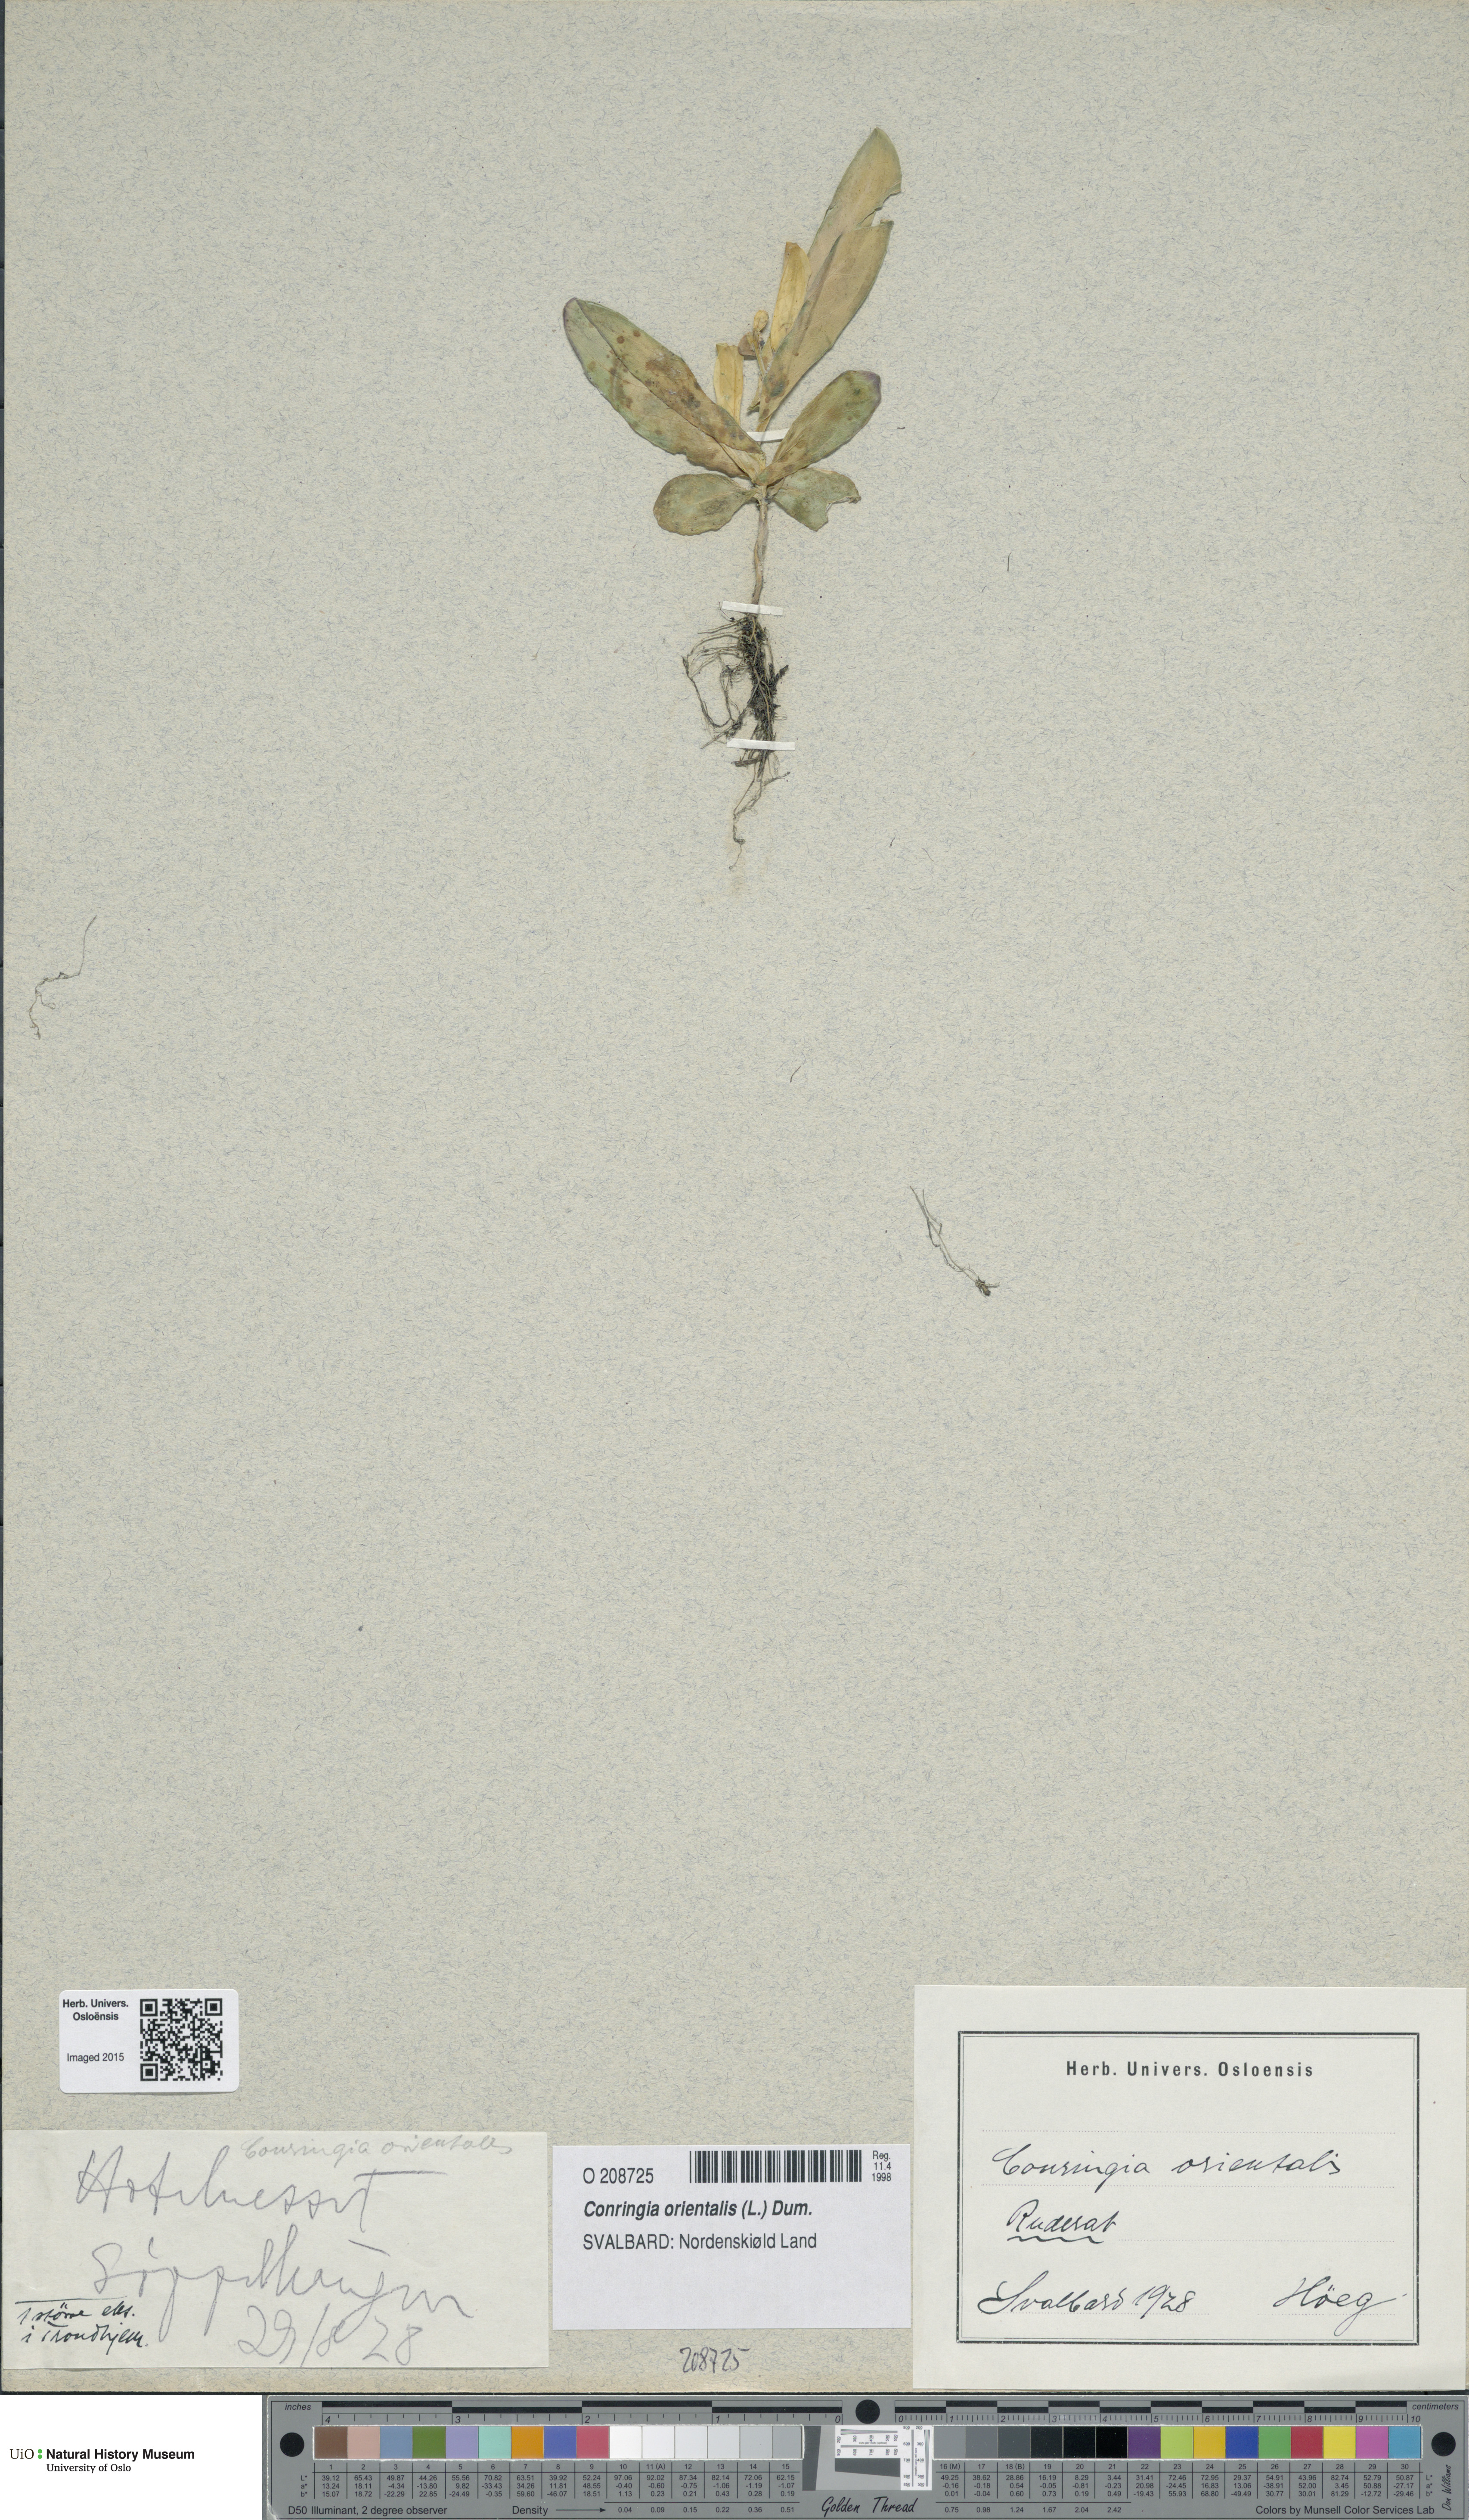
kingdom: Plantae
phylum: Tracheophyta
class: Magnoliopsida
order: Brassicales
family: Brassicaceae
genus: Conringia
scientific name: Conringia orientalis
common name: Hare's ear mustard
